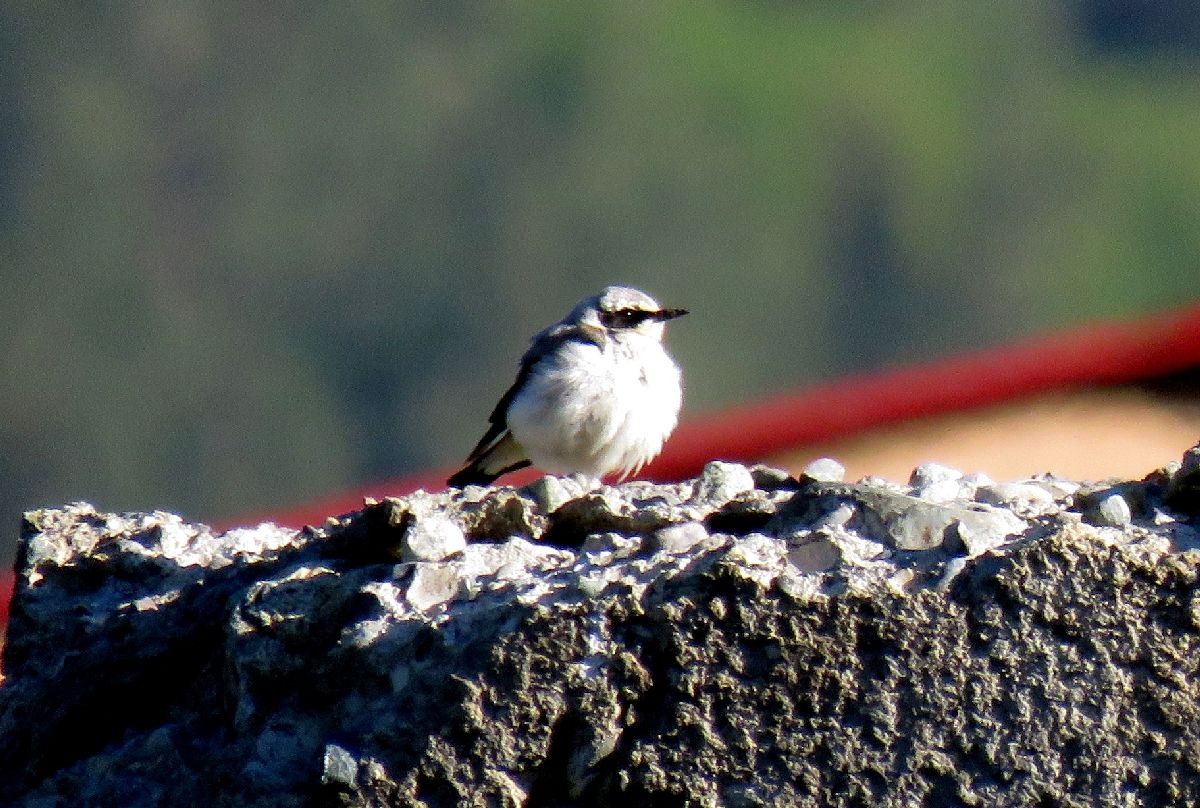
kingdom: Animalia
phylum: Chordata
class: Aves
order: Passeriformes
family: Muscicapidae
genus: Oenanthe
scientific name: Oenanthe oenanthe
